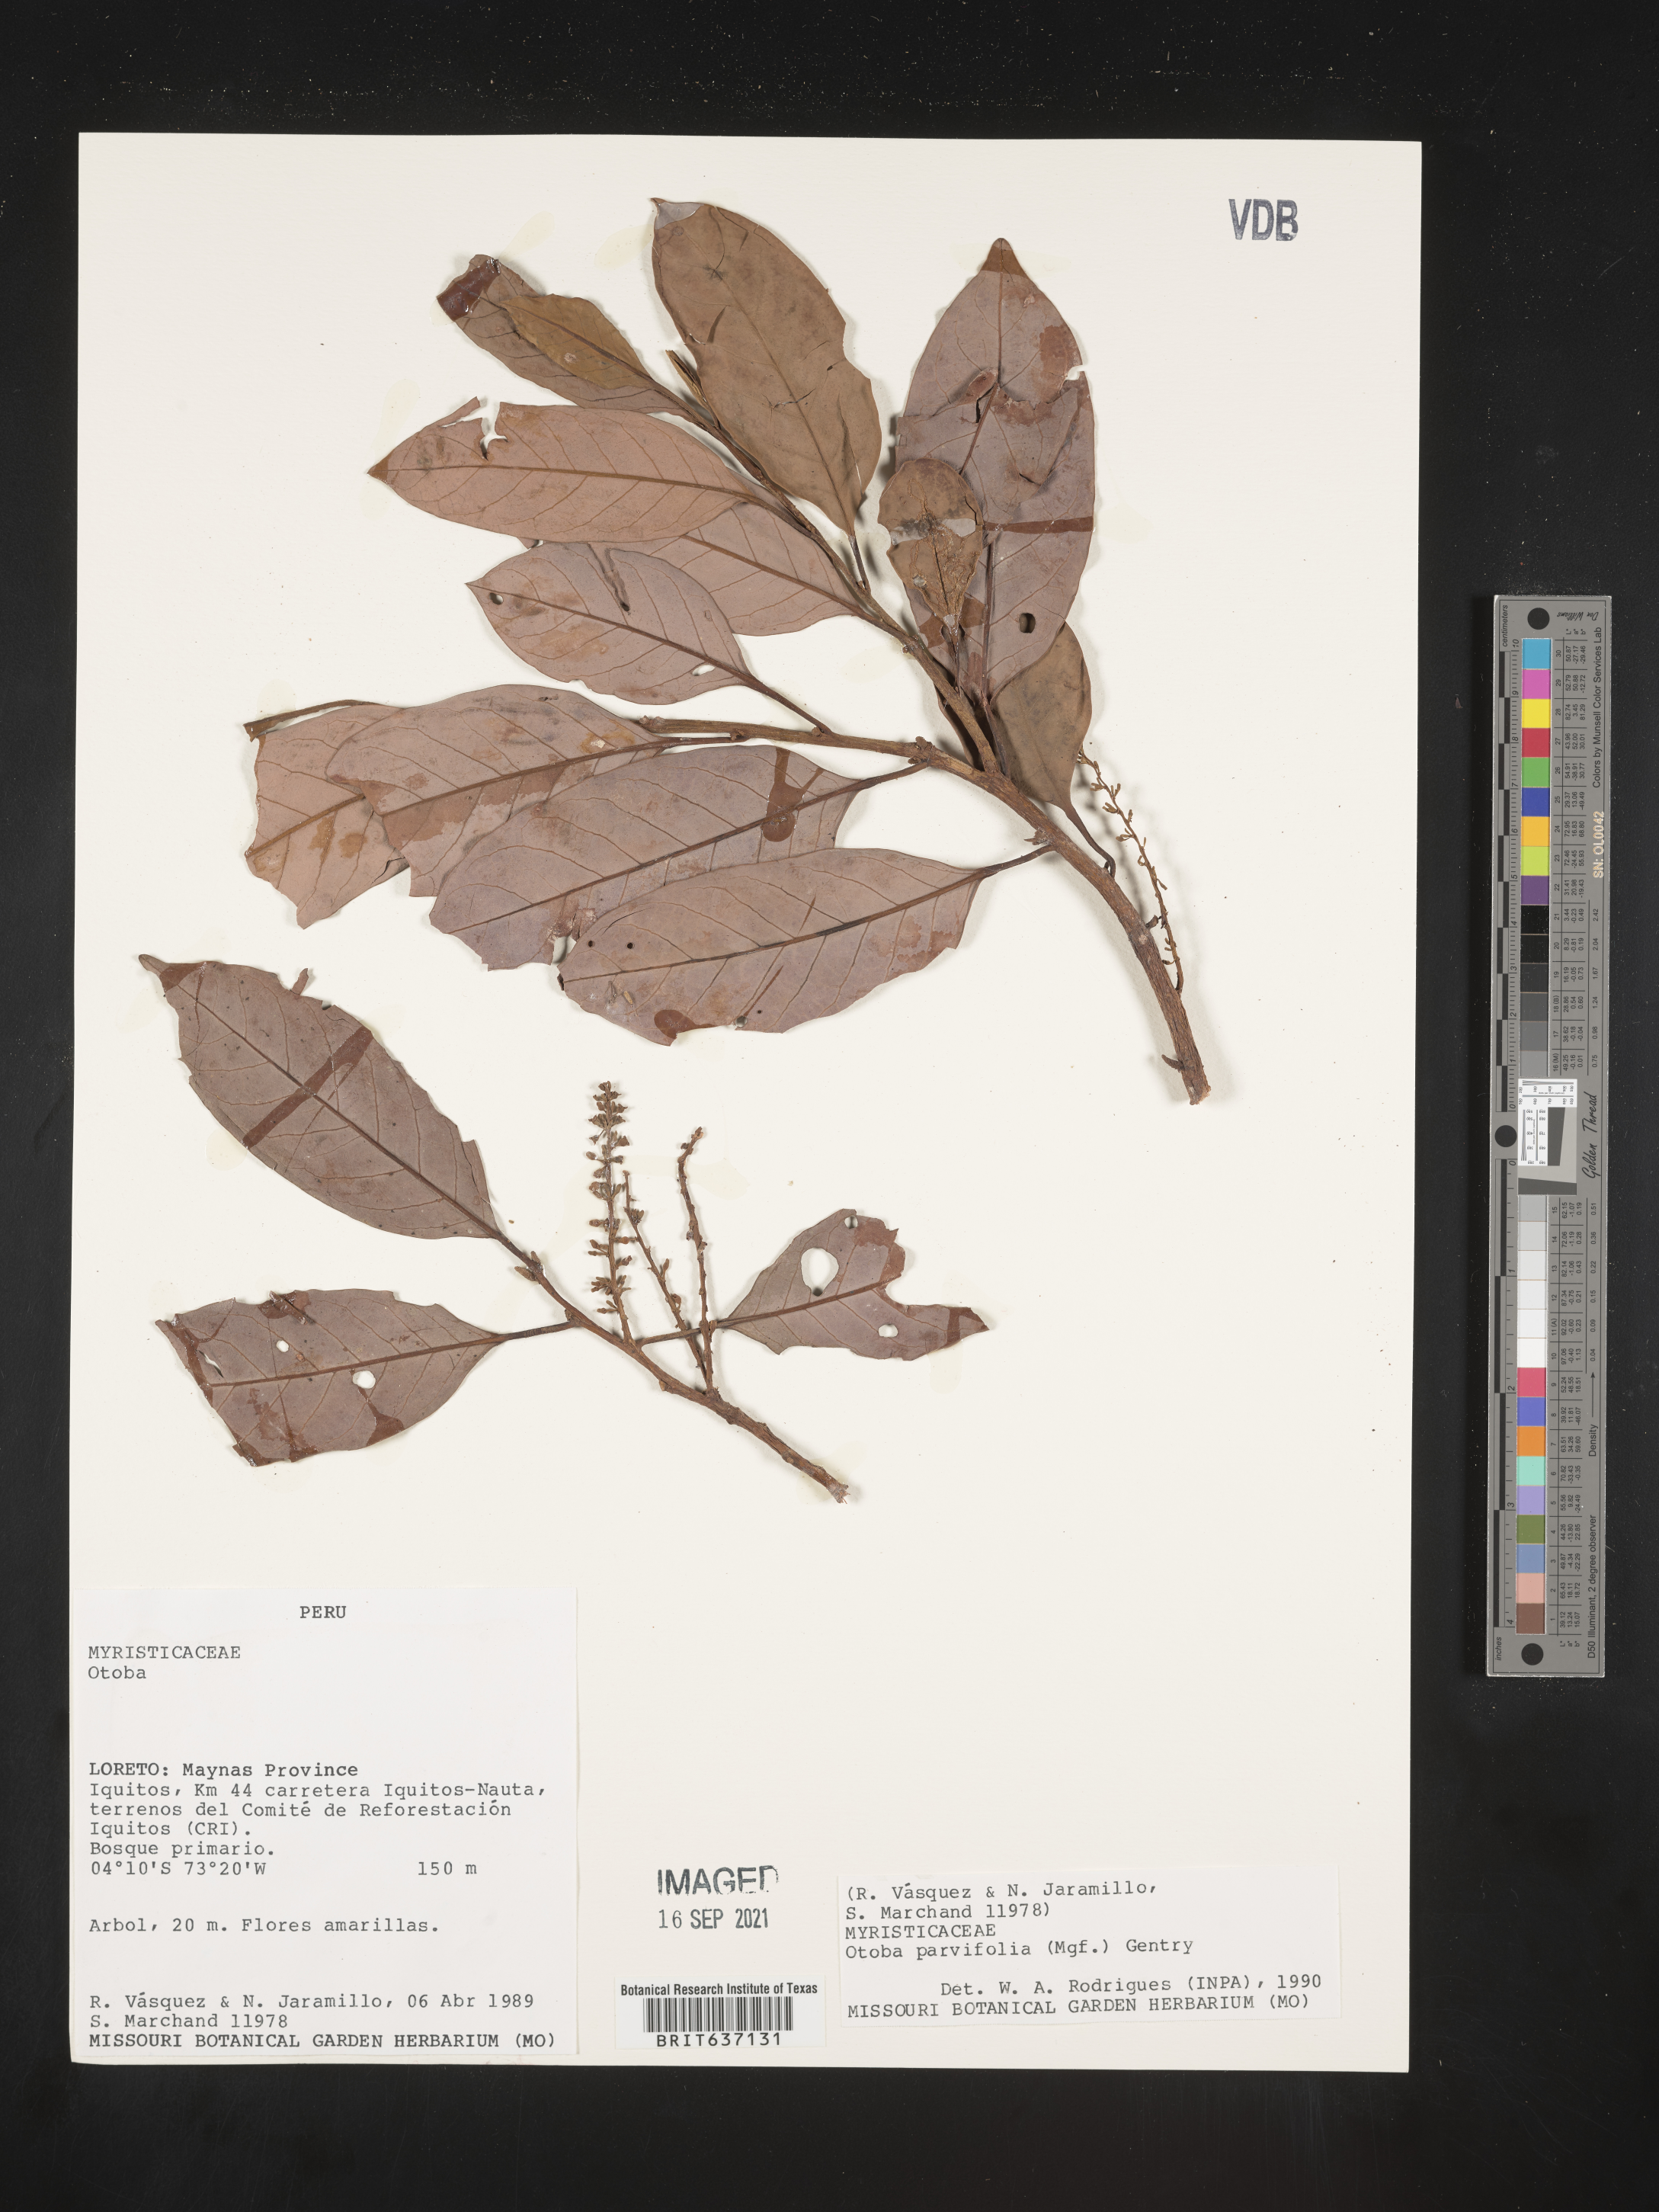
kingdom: Plantae
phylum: Tracheophyta
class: Magnoliopsida
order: Magnoliales
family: Myristicaceae
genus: Otoba
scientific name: Otoba
